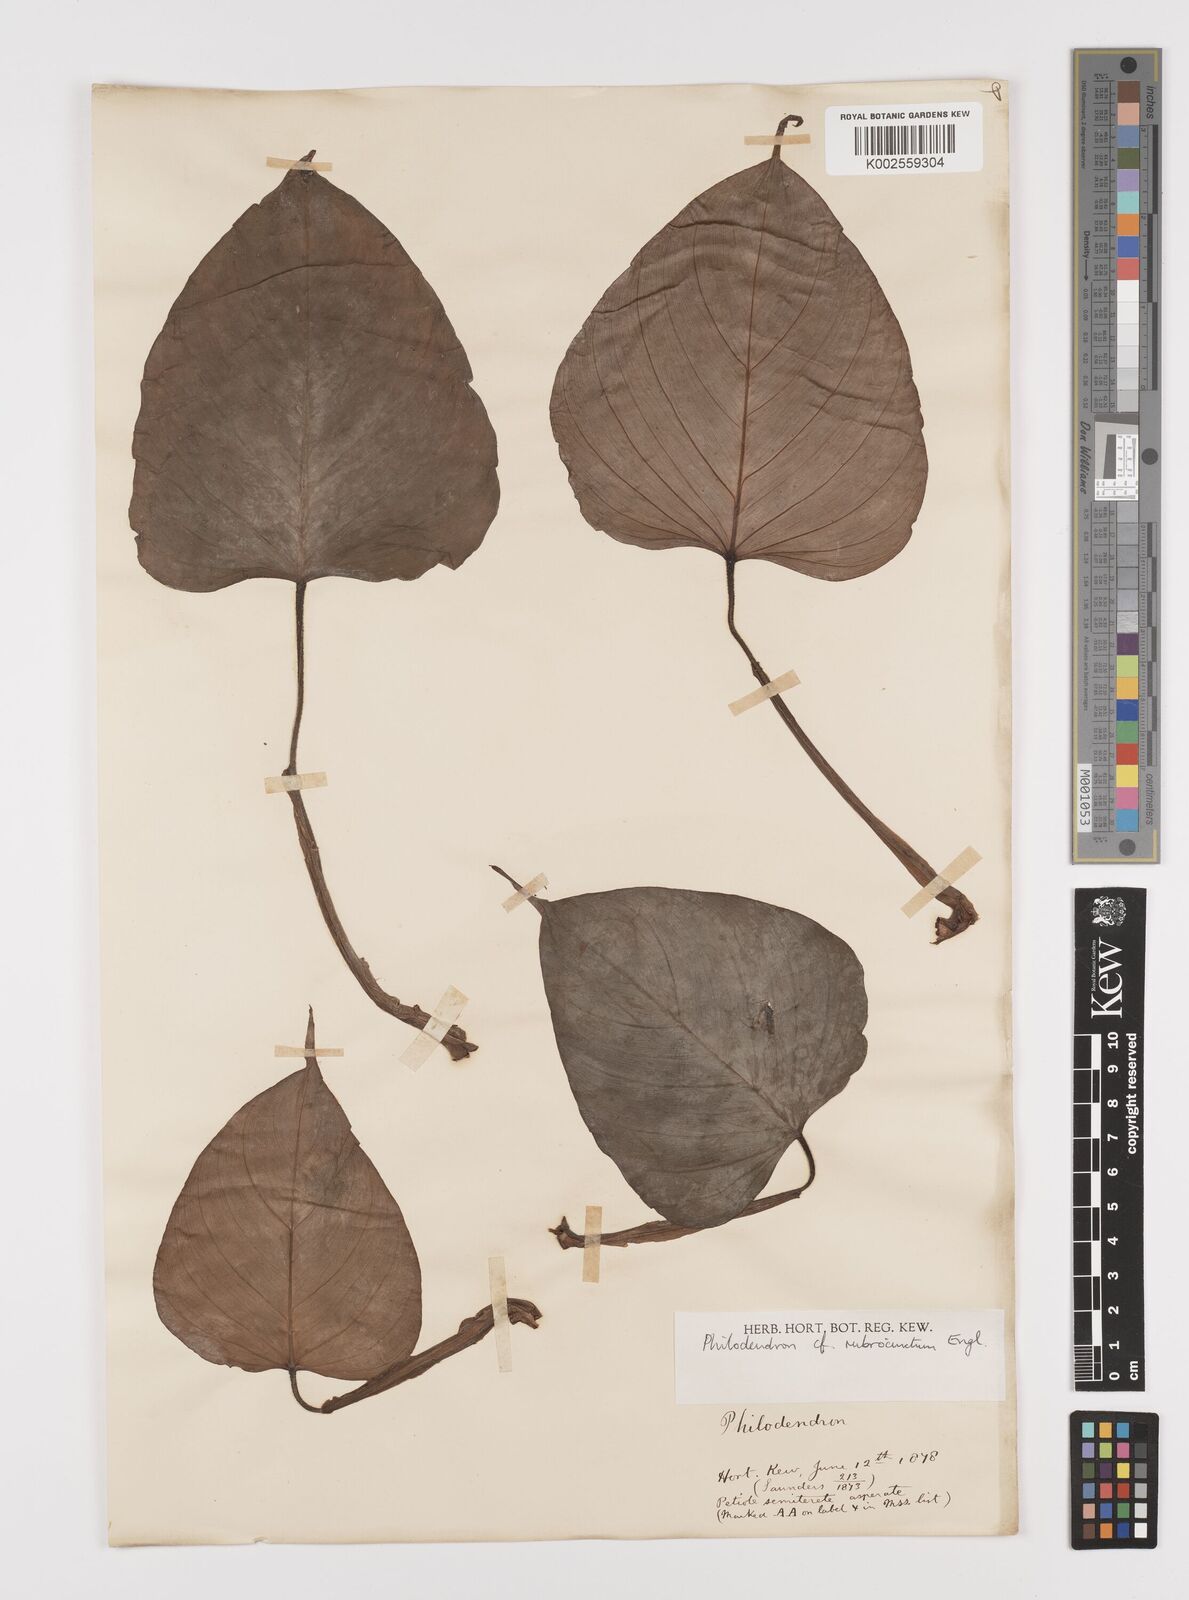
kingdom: Plantae
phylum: Tracheophyta
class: Liliopsida
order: Alismatales
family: Araceae
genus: Philodendron
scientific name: Philodendron rubrocinctum
